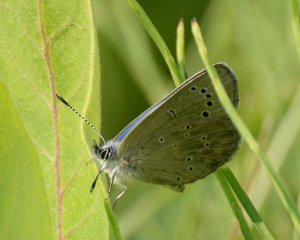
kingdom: Animalia
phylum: Arthropoda
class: Insecta
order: Lepidoptera
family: Lycaenidae
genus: Glaucopsyche
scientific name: Glaucopsyche lygdamus
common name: Silvery Blue
